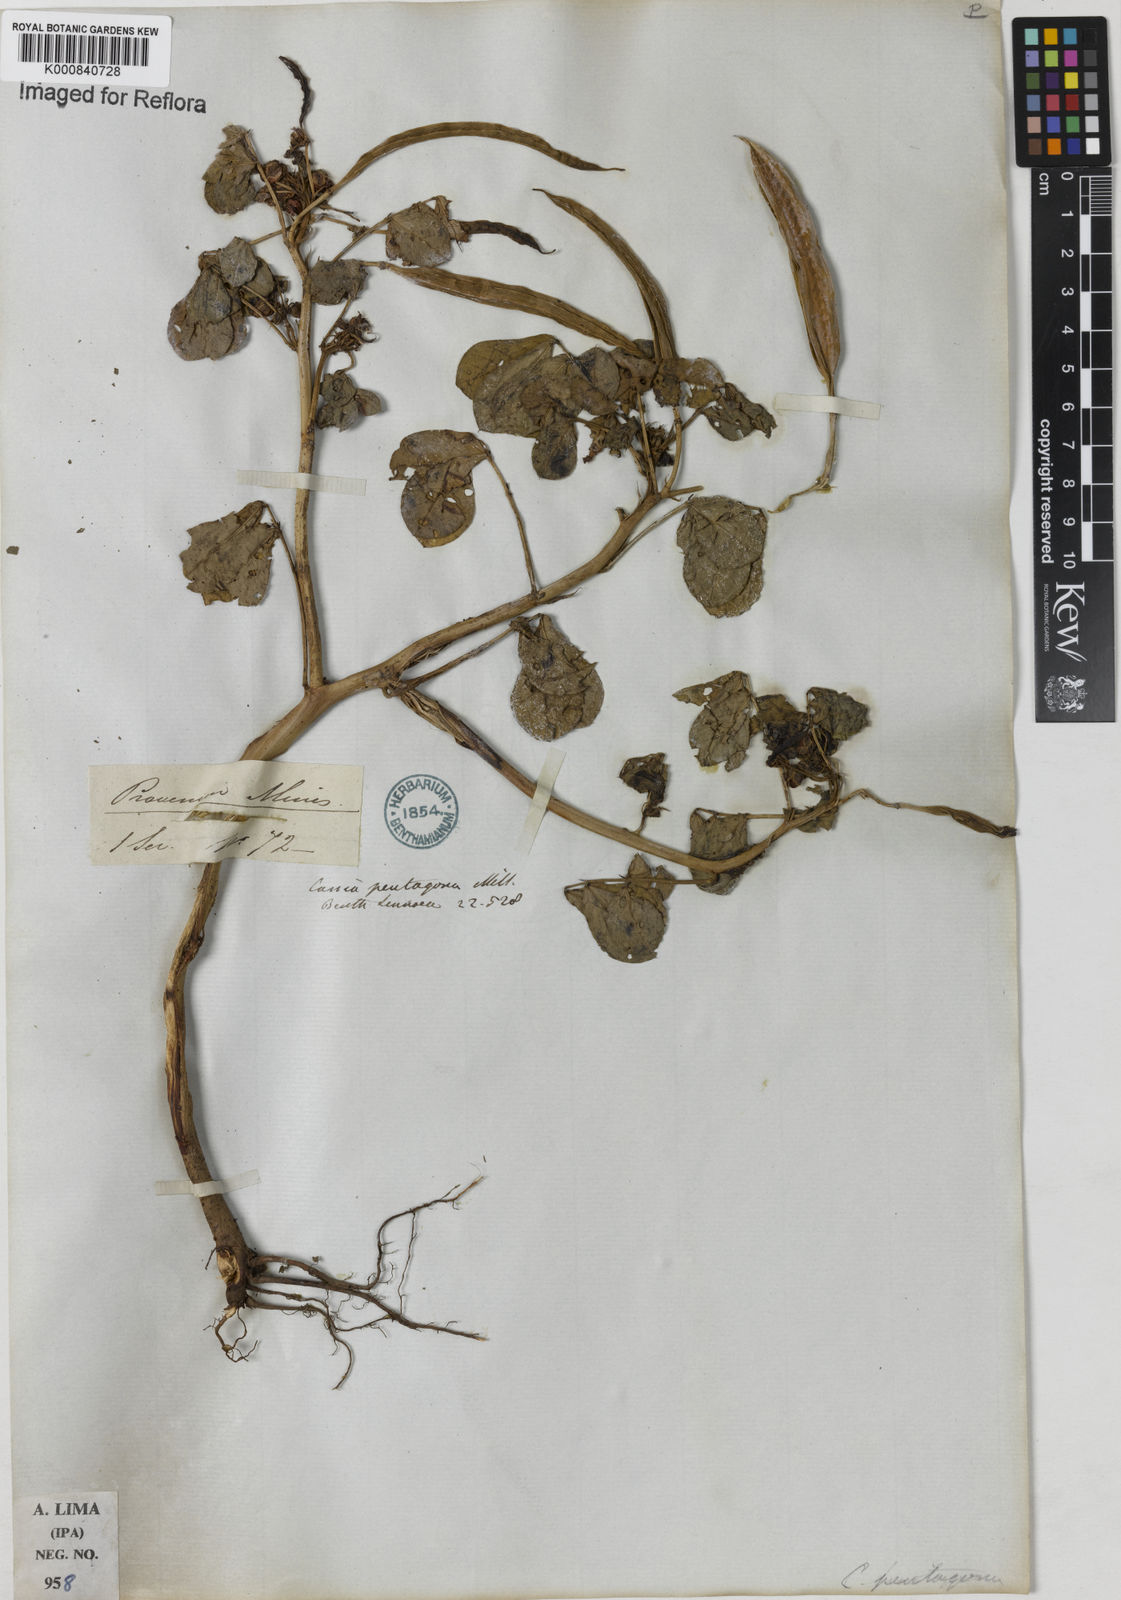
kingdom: Plantae
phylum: Tracheophyta
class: Magnoliopsida
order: Fabales
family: Fabaceae
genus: Senna
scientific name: Senna pentagonia
